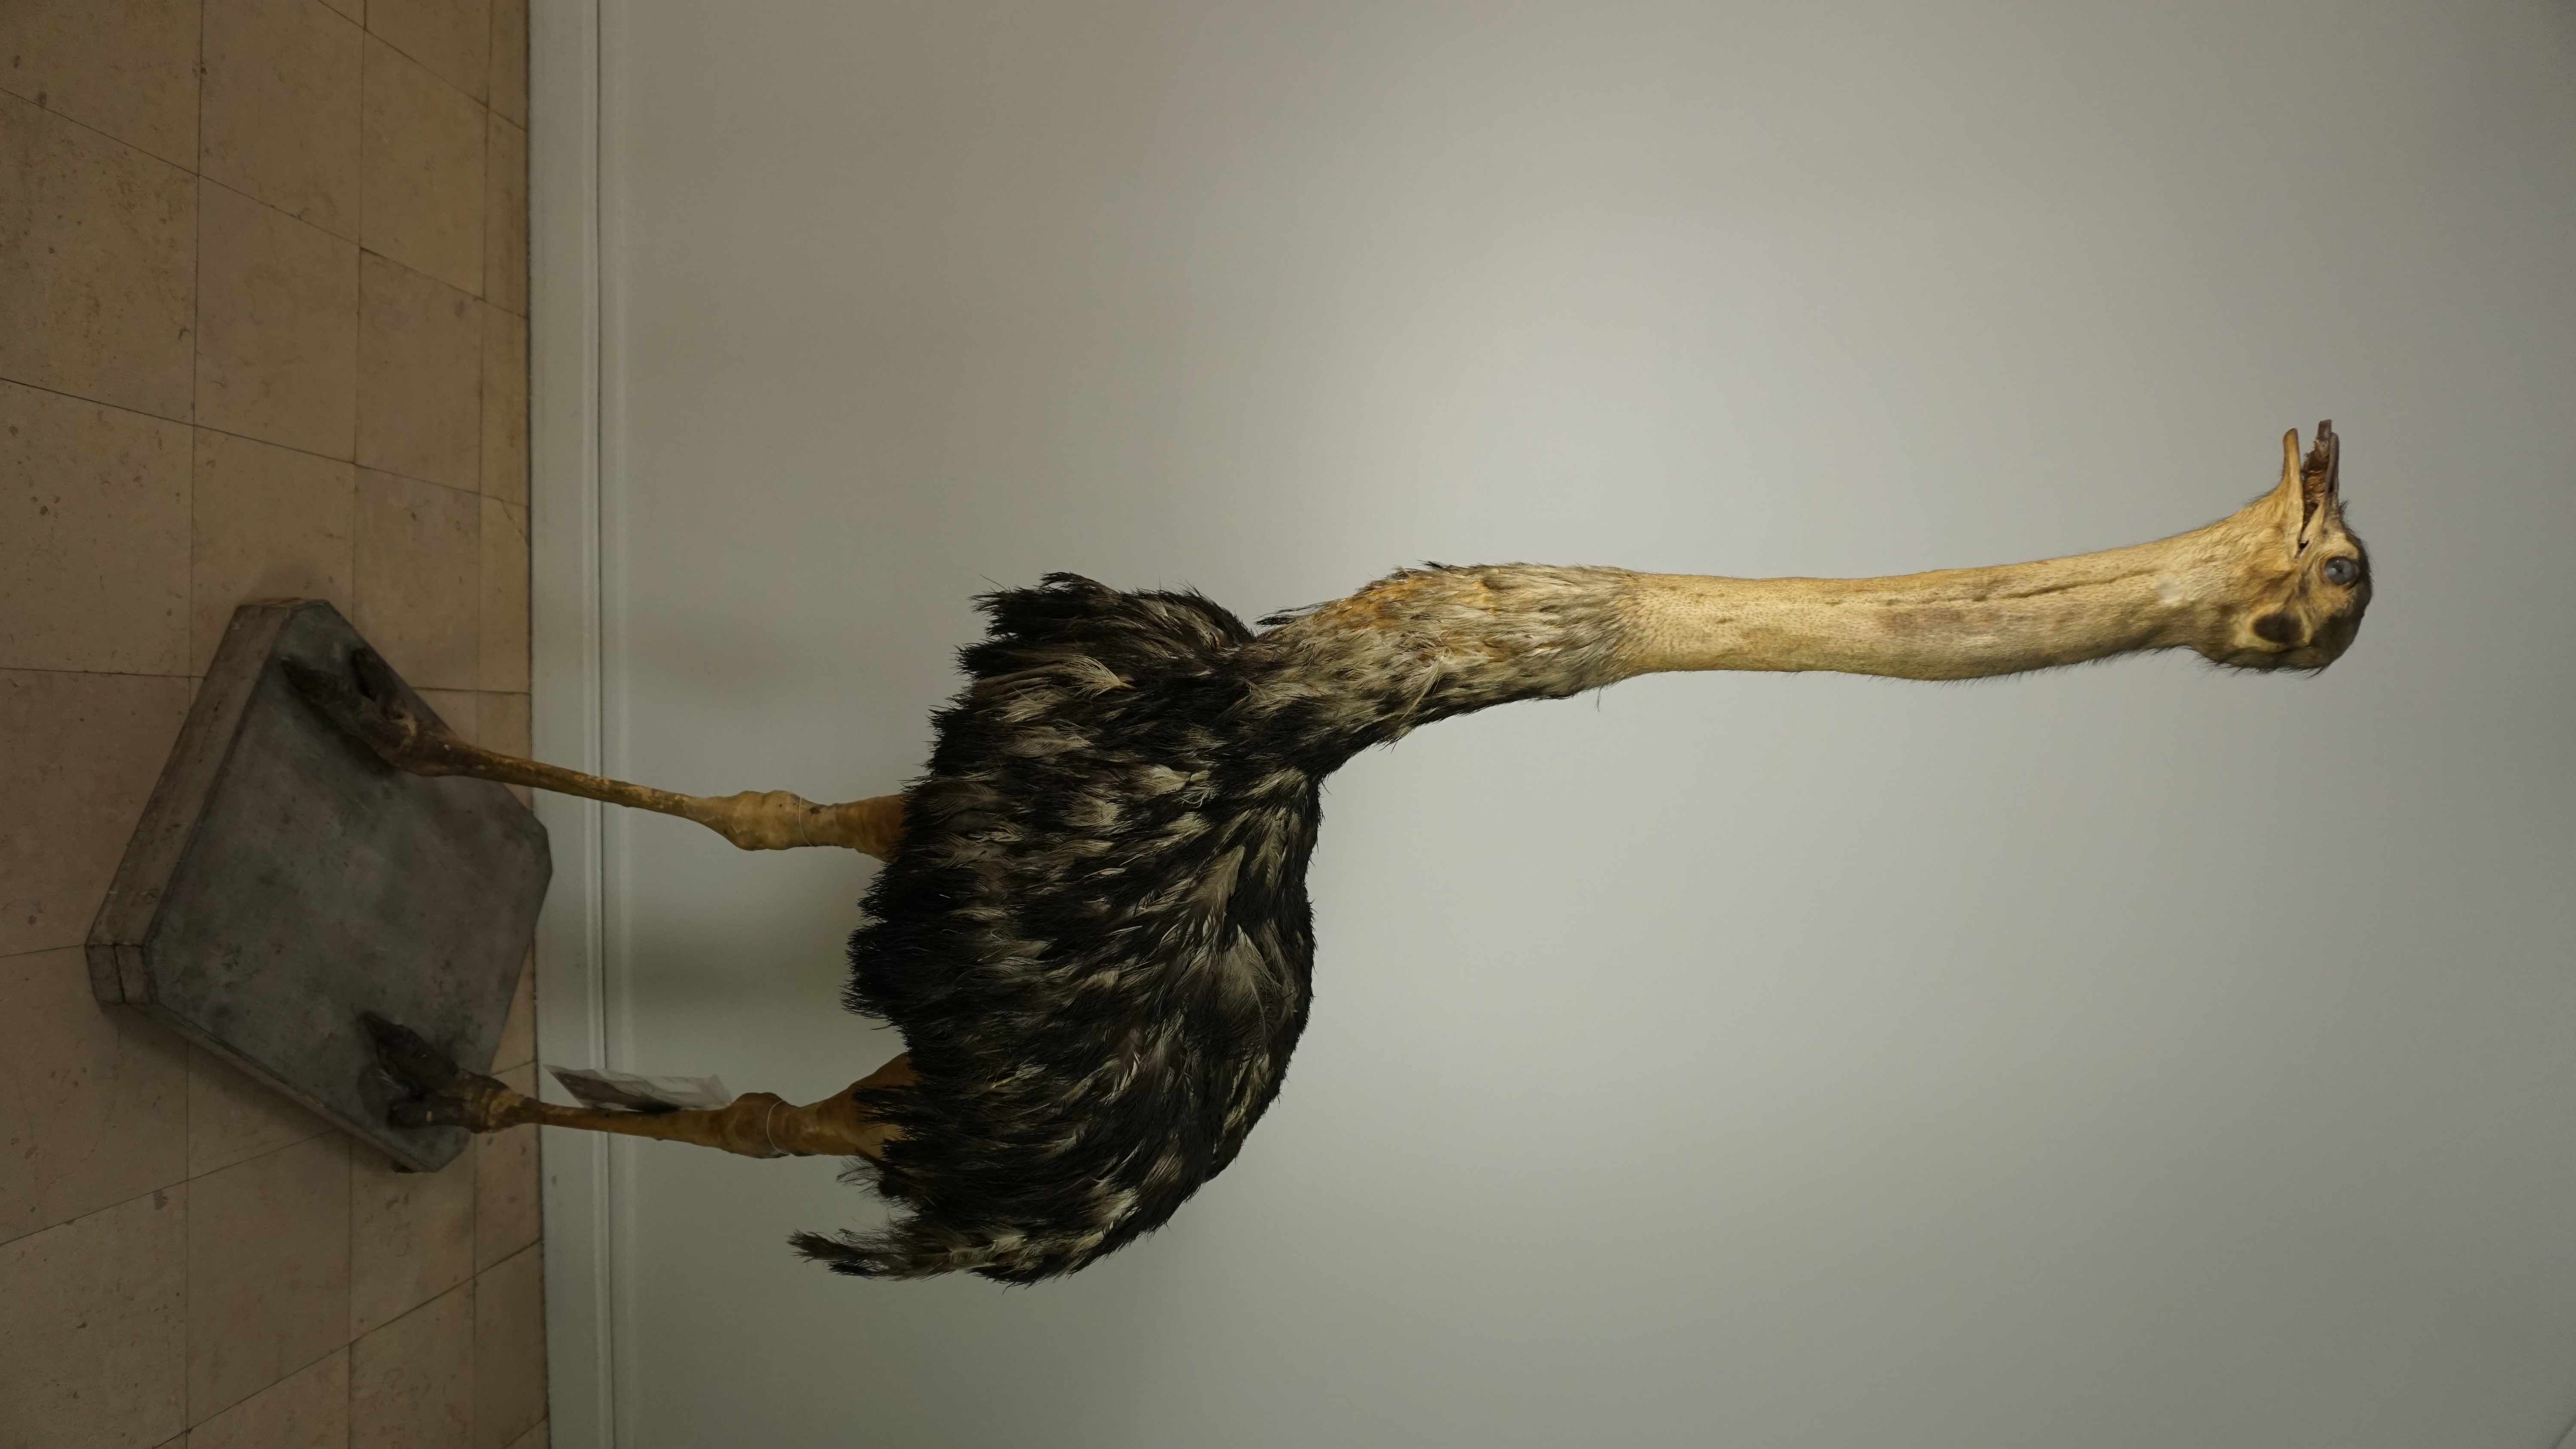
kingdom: Animalia
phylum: Chordata
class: Aves
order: Struthioniformes
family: Struthionidae
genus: Struthio
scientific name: Struthio camelus
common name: Common ostrich
